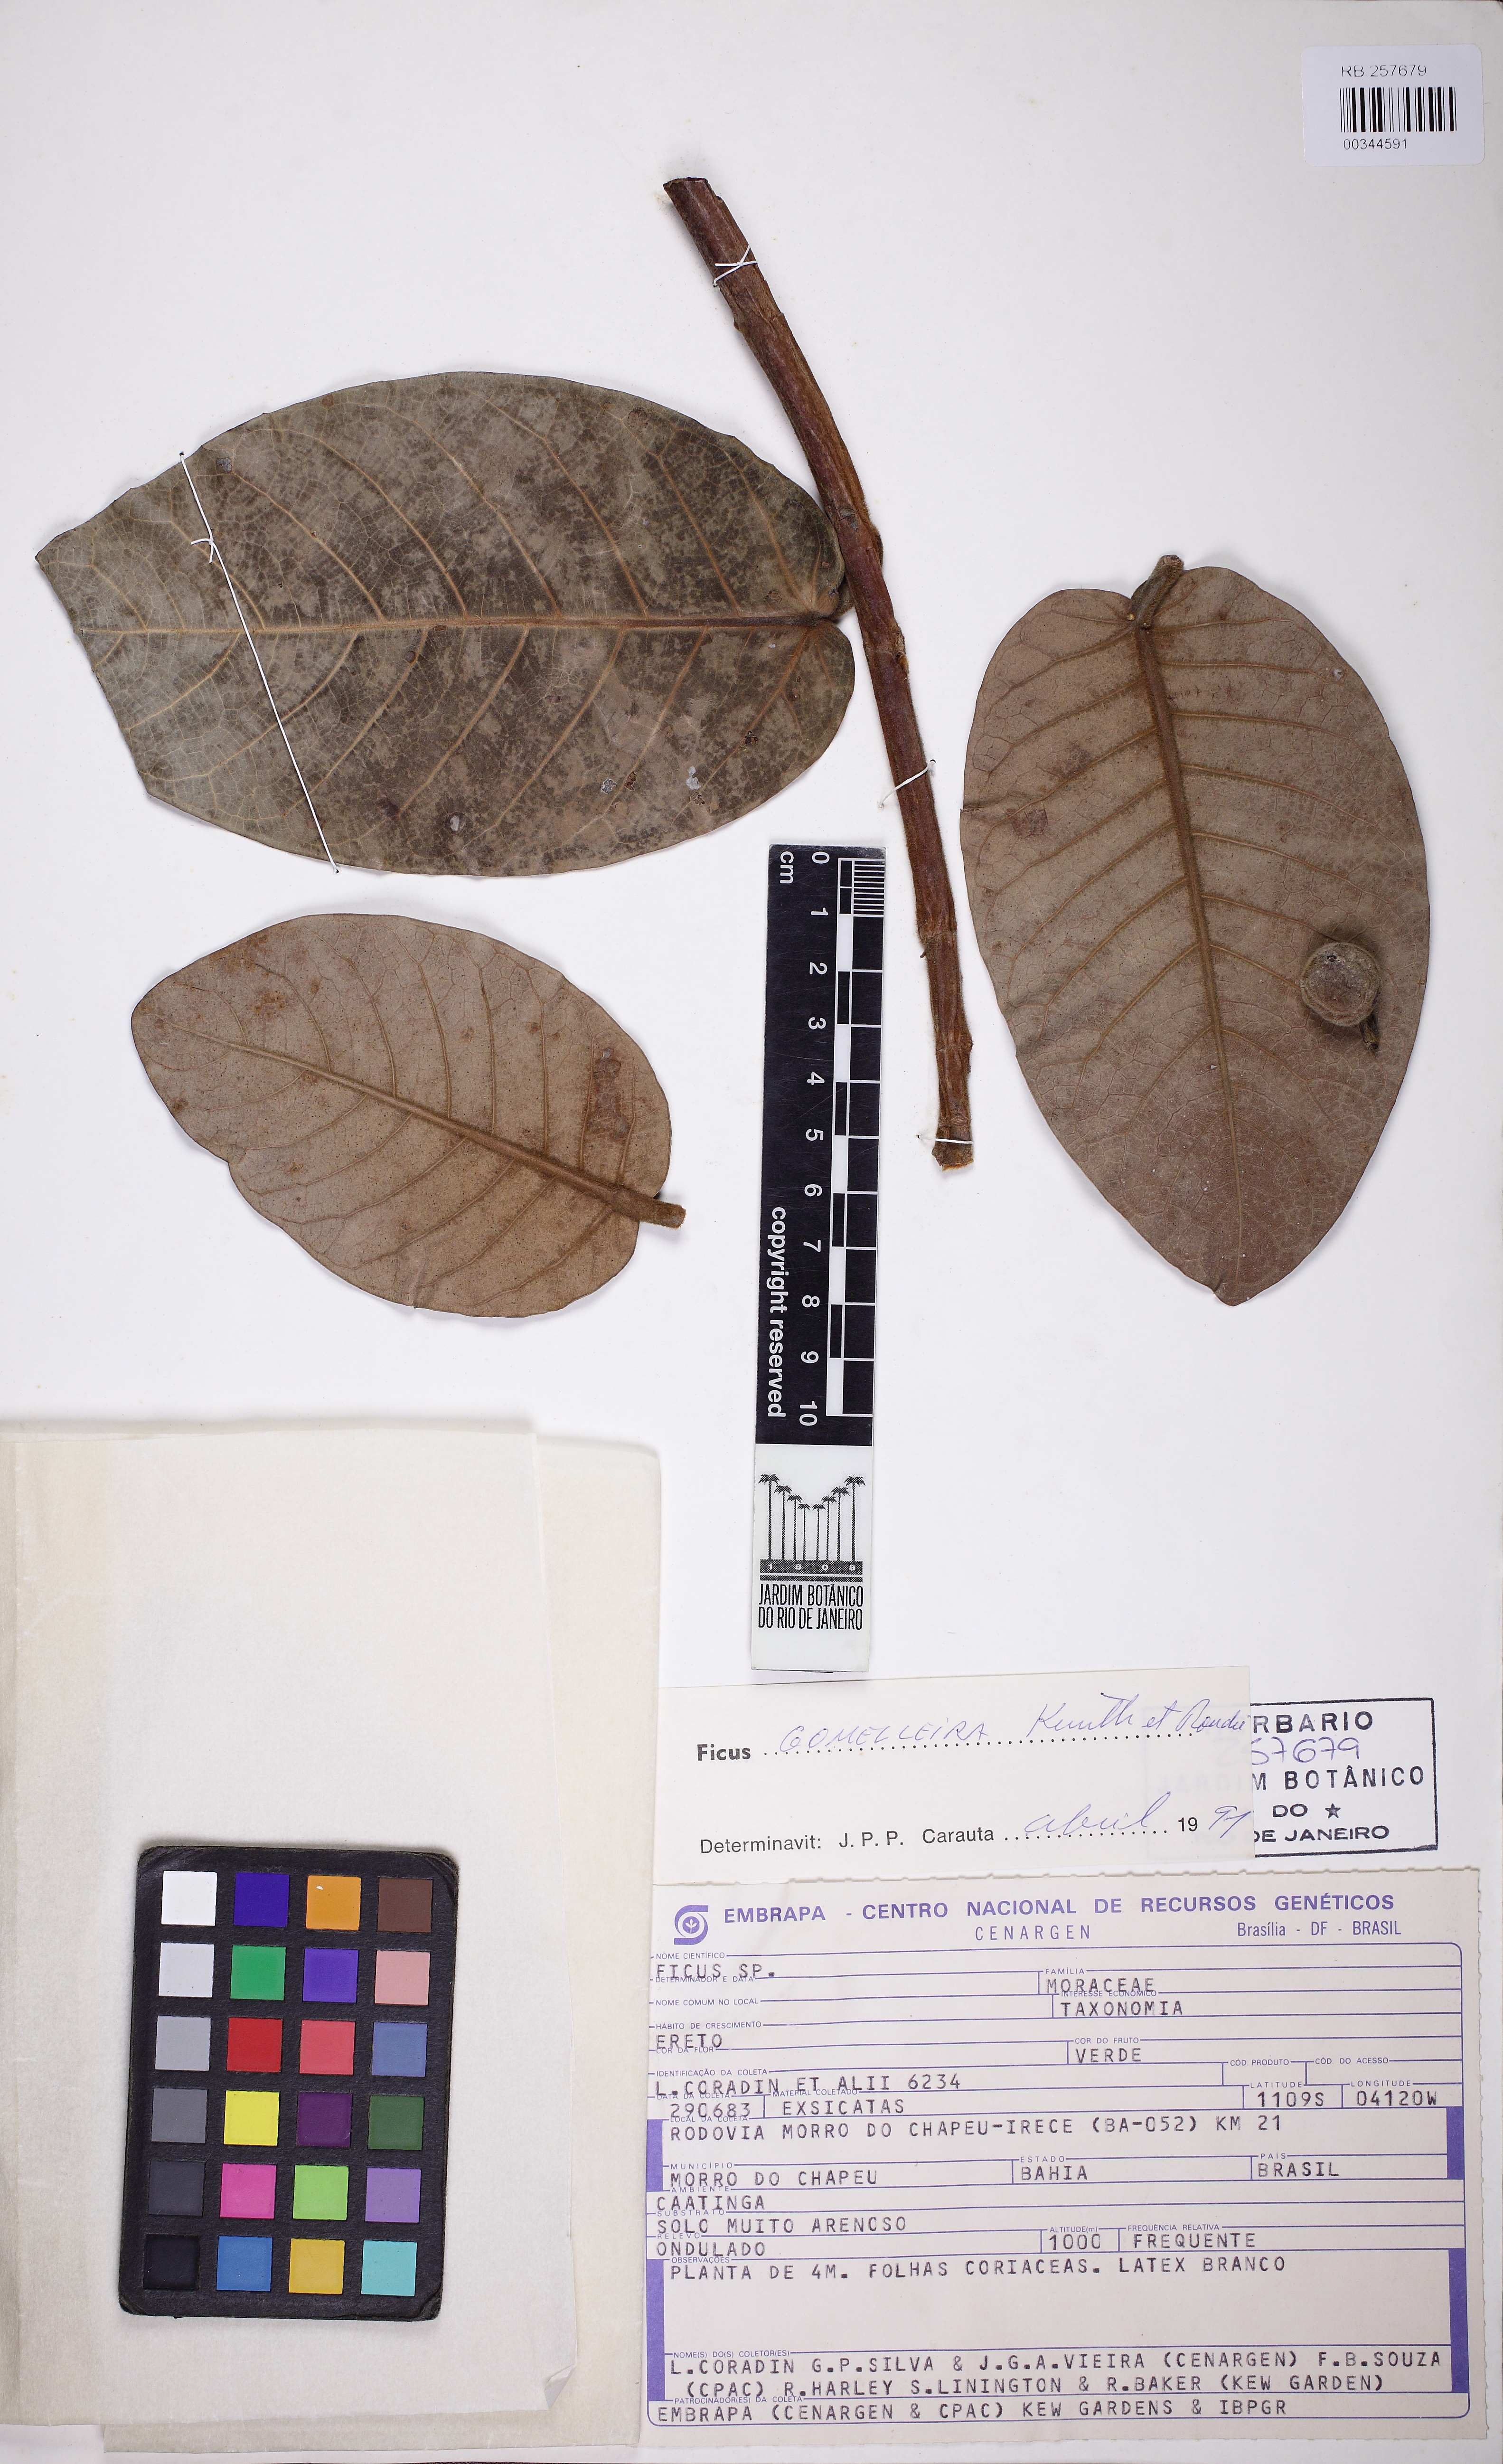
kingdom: Plantae
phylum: Tracheophyta
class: Magnoliopsida
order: Rosales
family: Moraceae
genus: Ficus
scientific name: Ficus gomelleira
